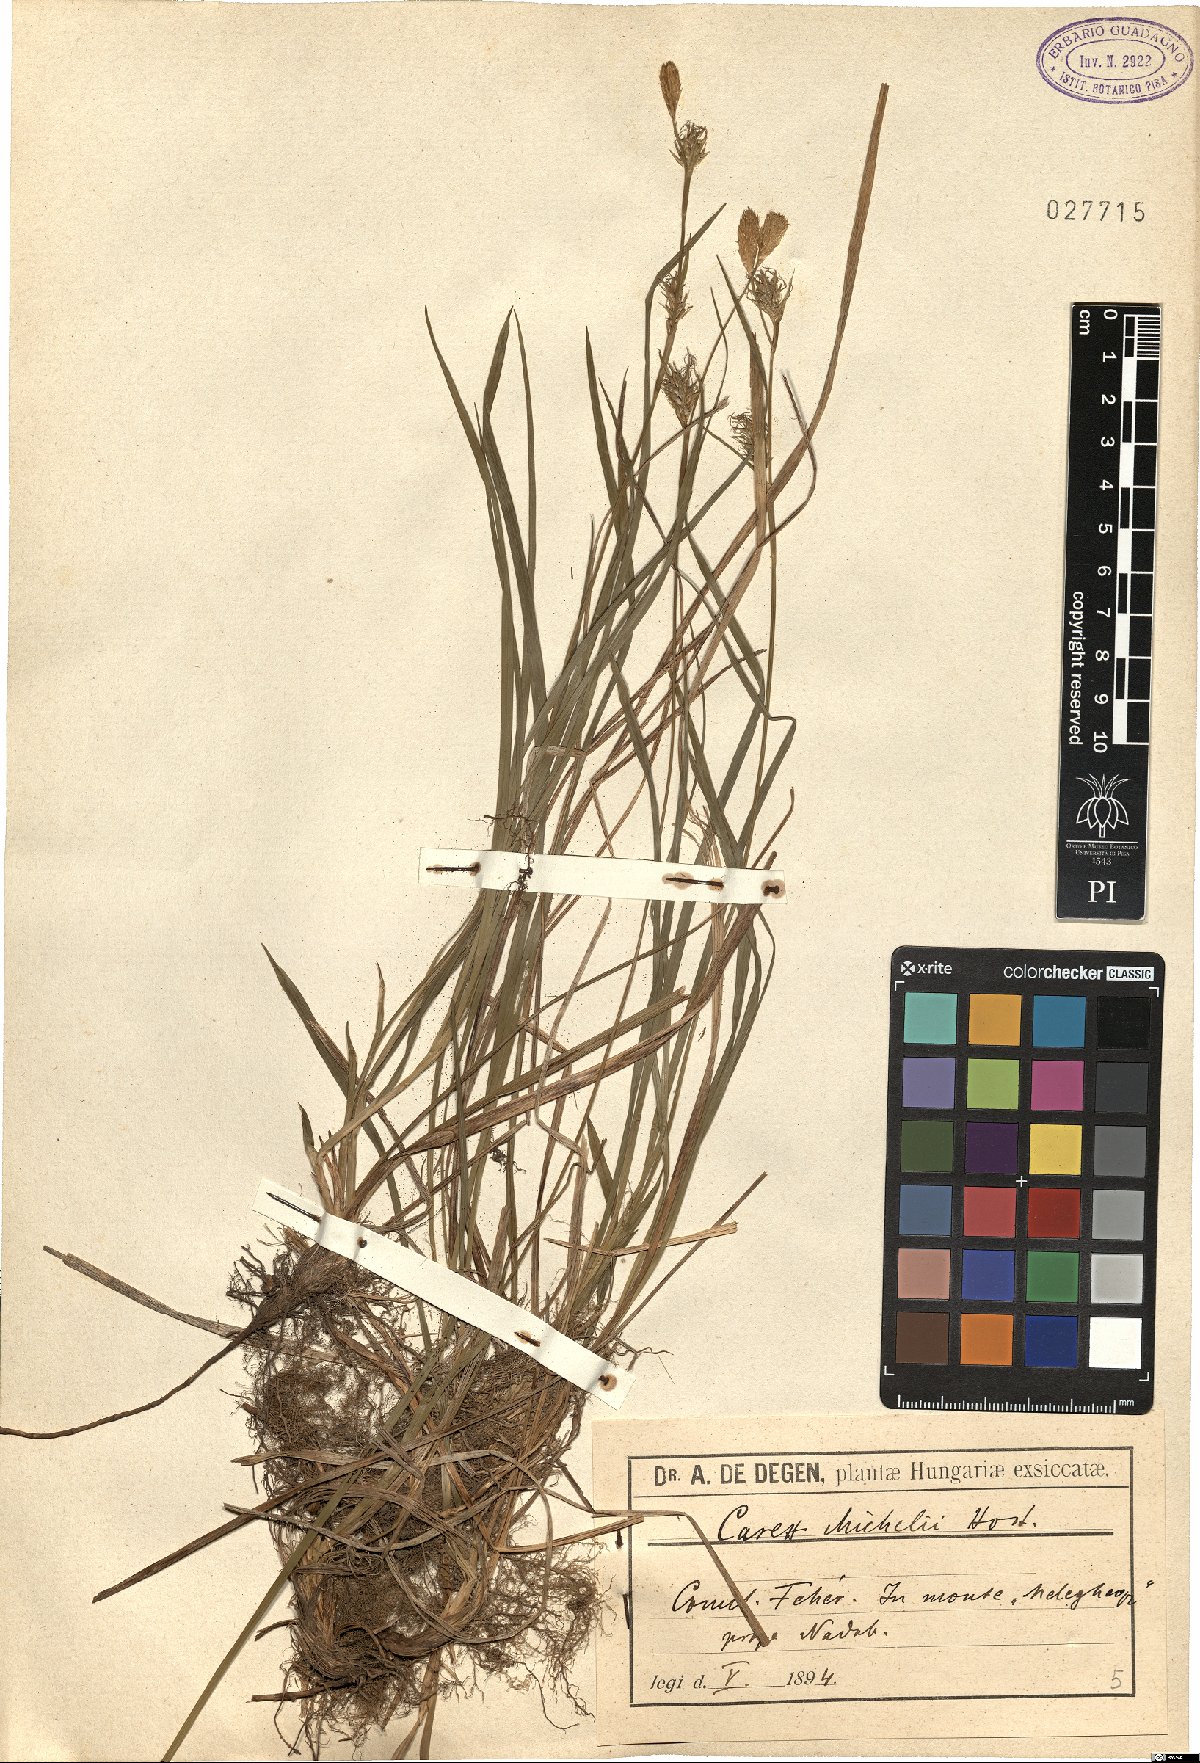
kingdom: Plantae
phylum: Tracheophyta
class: Liliopsida
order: Poales
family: Cyperaceae
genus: Carex
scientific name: Carex michelii
